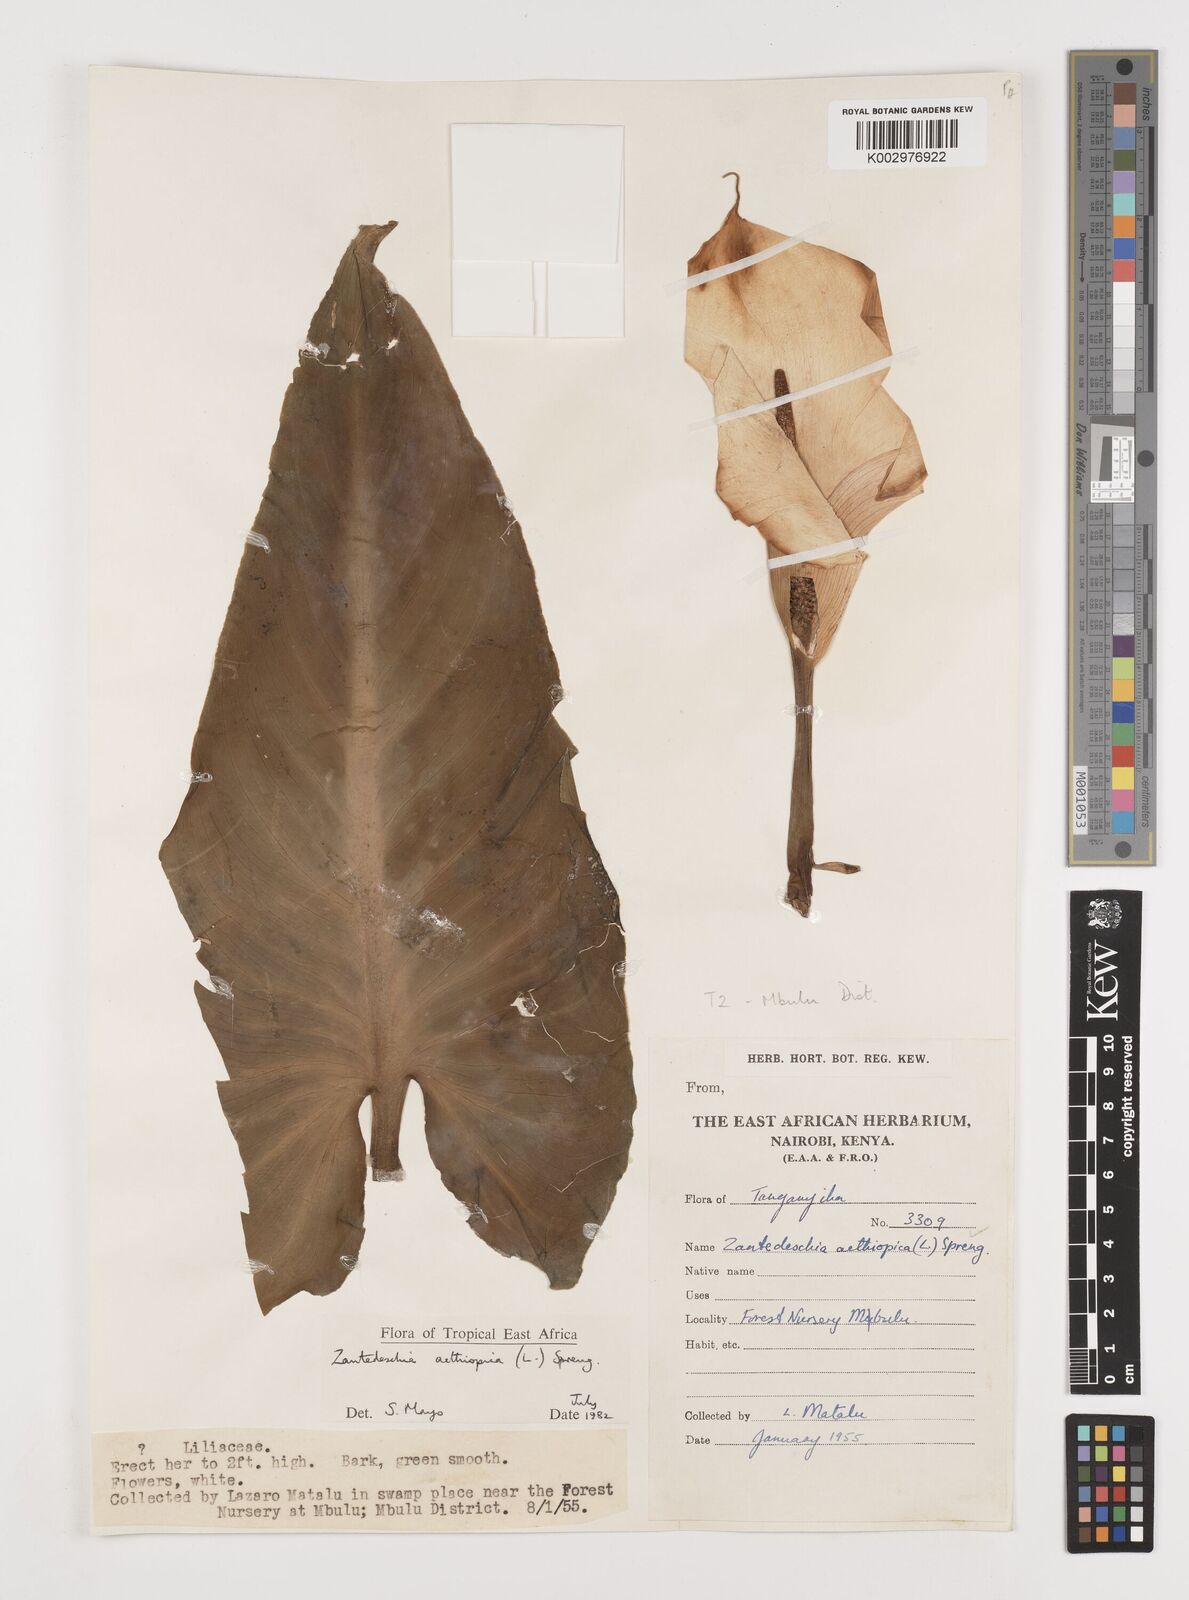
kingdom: Plantae
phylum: Tracheophyta
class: Liliopsida
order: Alismatales
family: Araceae
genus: Zantedeschia
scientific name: Zantedeschia aethiopica
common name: Altar-lily
